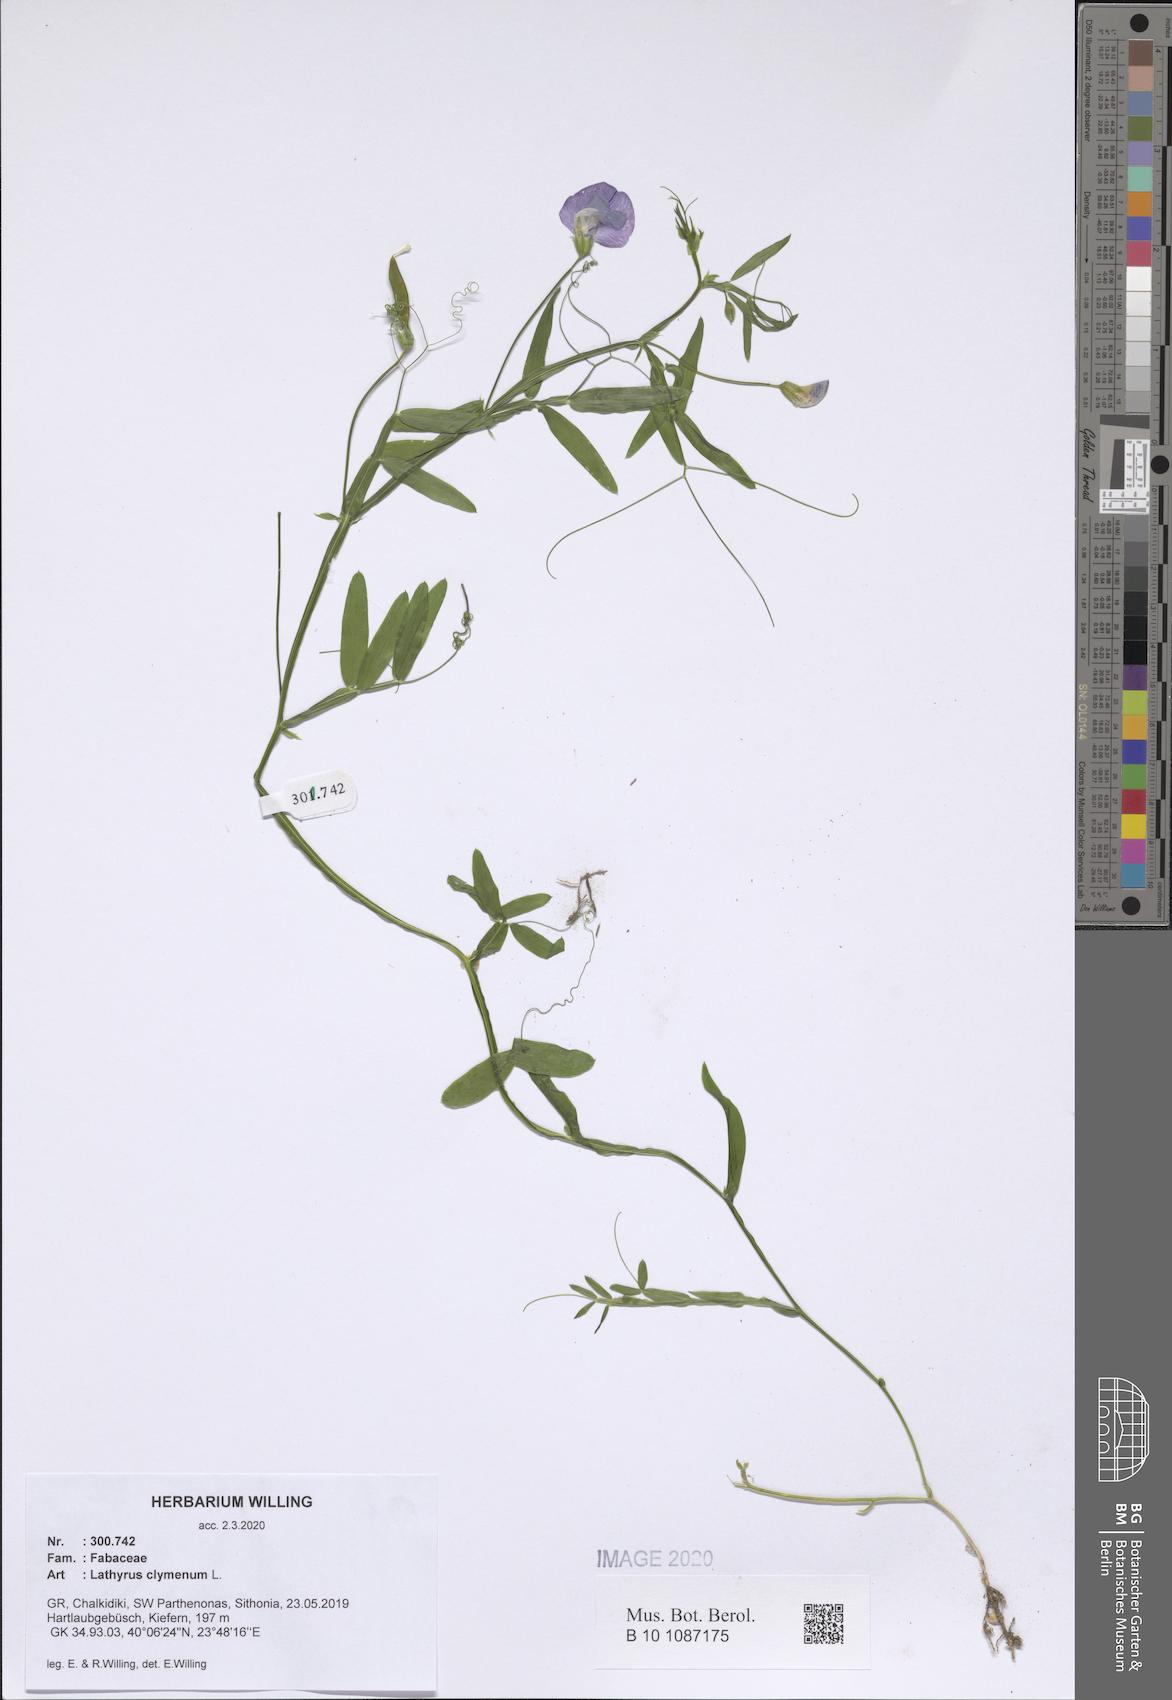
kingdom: Plantae
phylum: Tracheophyta
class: Magnoliopsida
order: Fabales
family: Fabaceae
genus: Lathyrus
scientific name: Lathyrus clymenum
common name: Spanish vetchling
